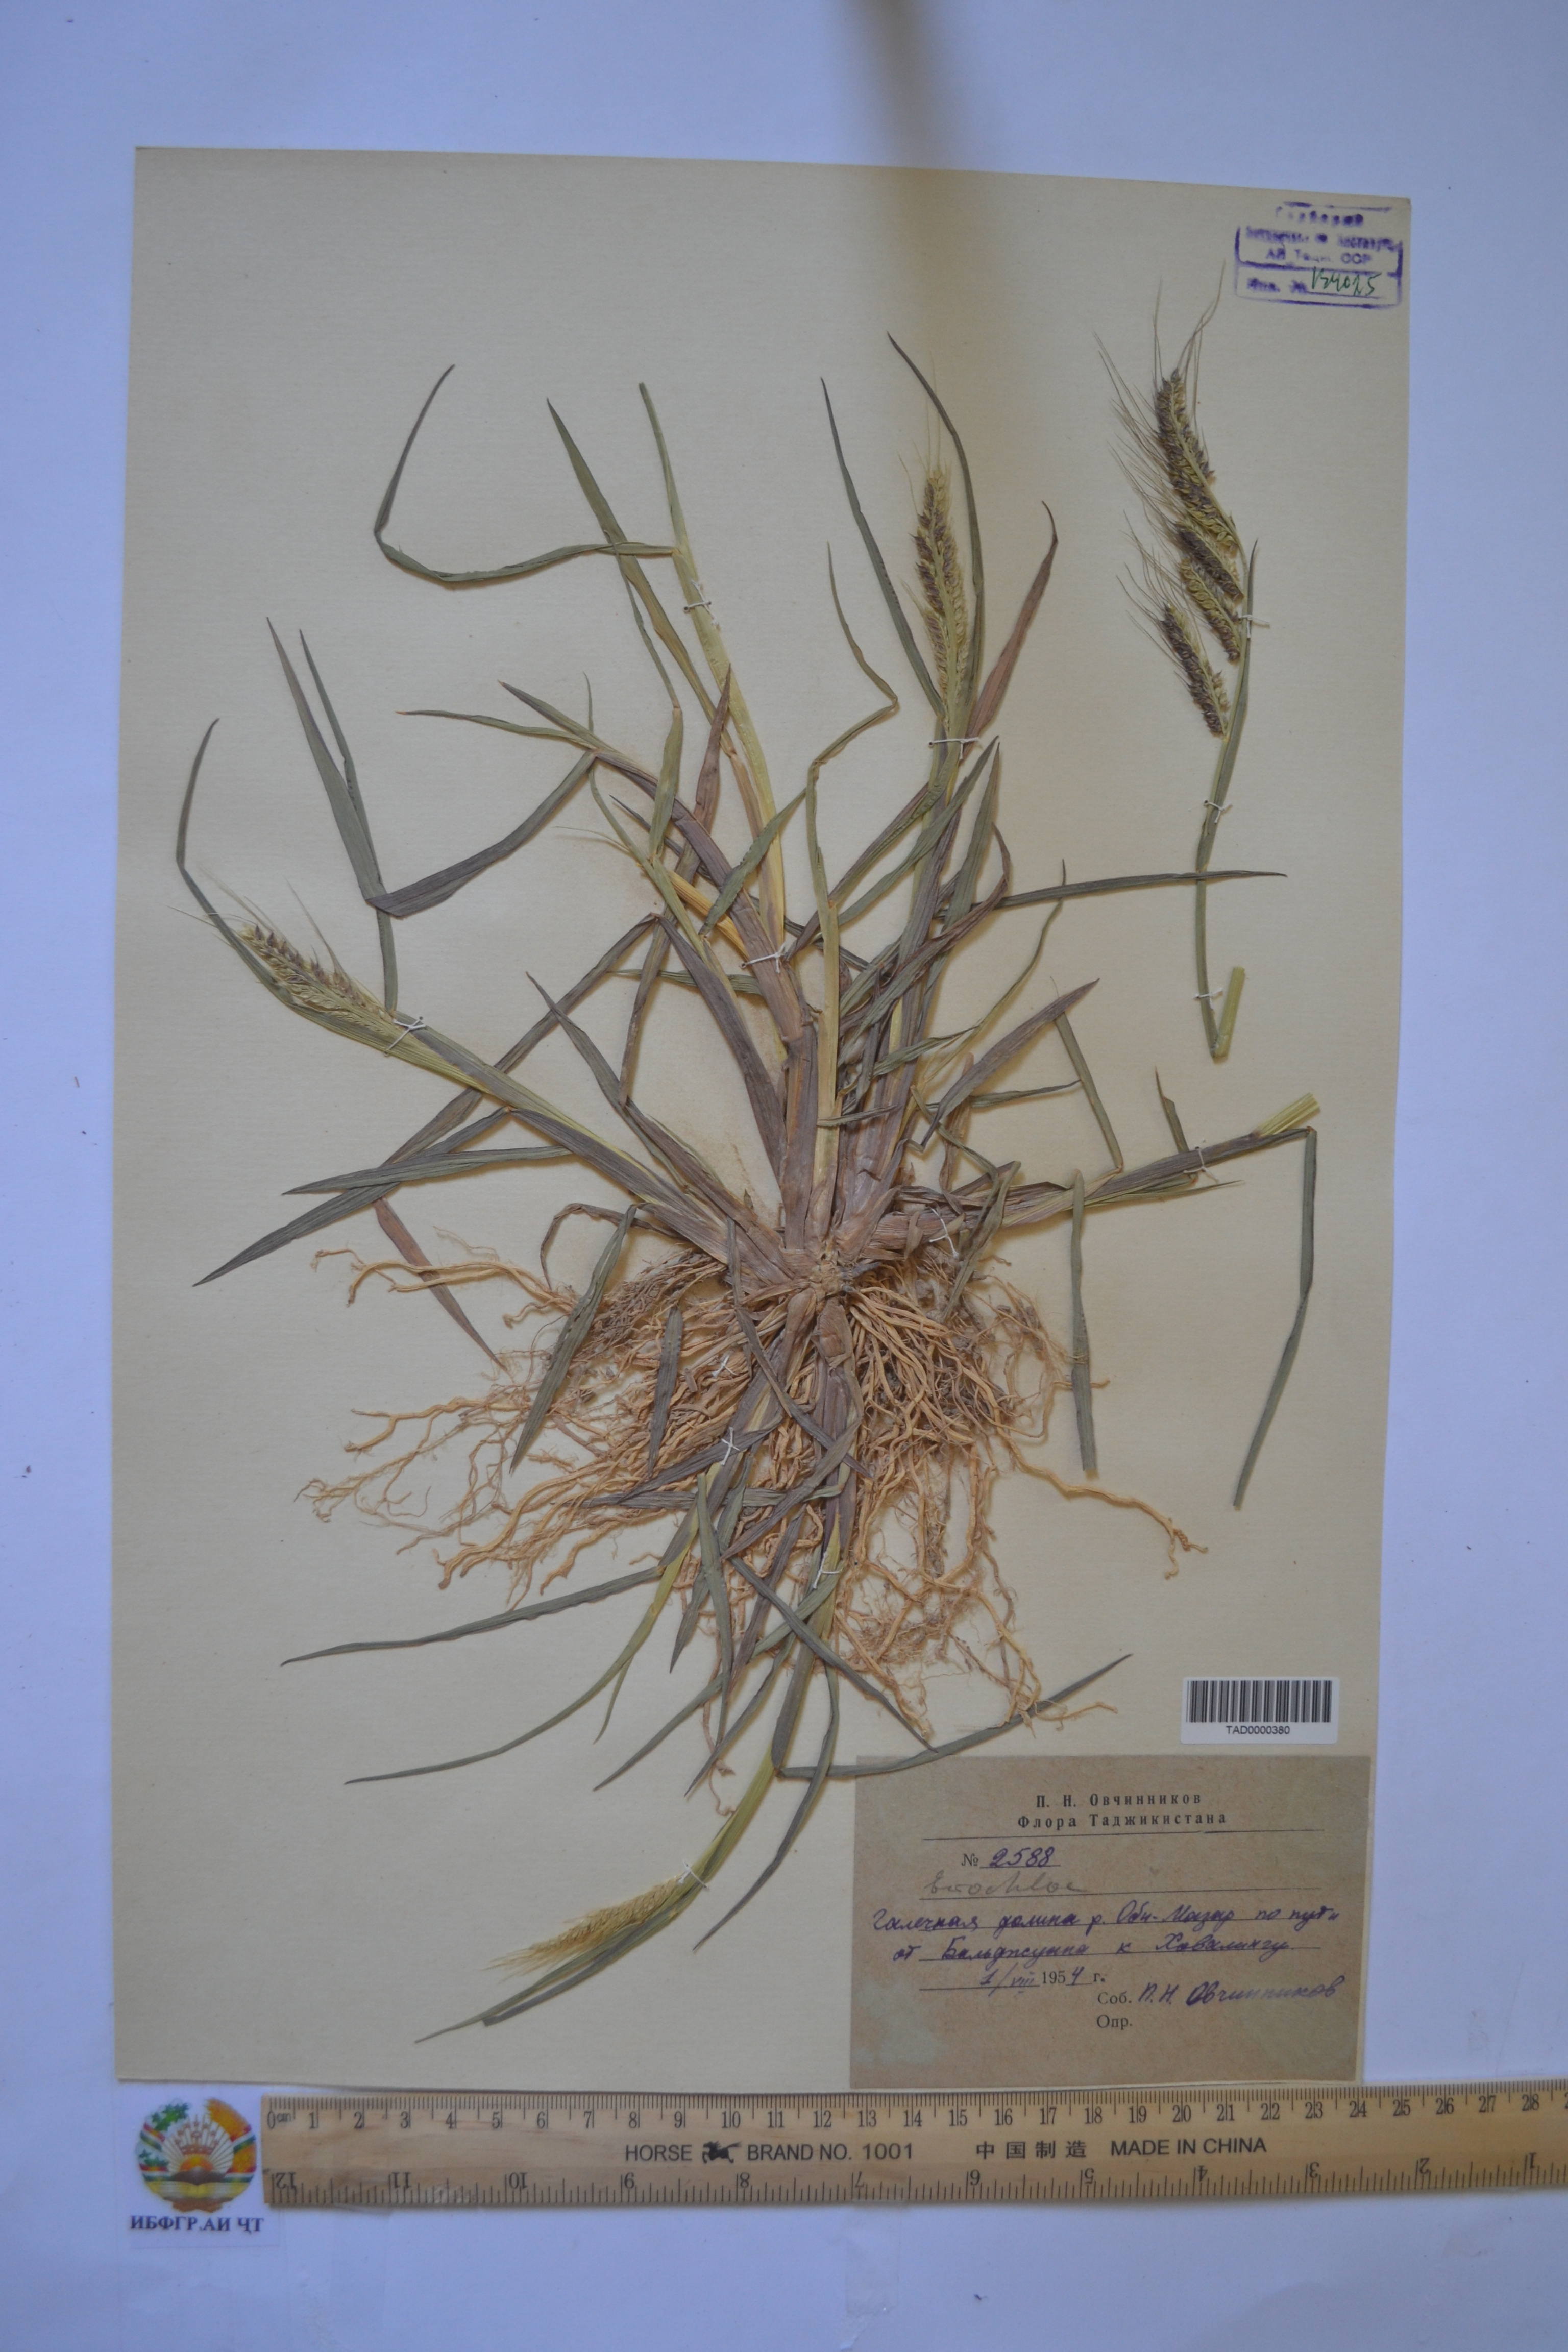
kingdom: Plantae
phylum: Tracheophyta
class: Liliopsida
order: Poales
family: Poaceae
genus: Echinochloa
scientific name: Echinochloa crus-galli
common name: Cockspur
